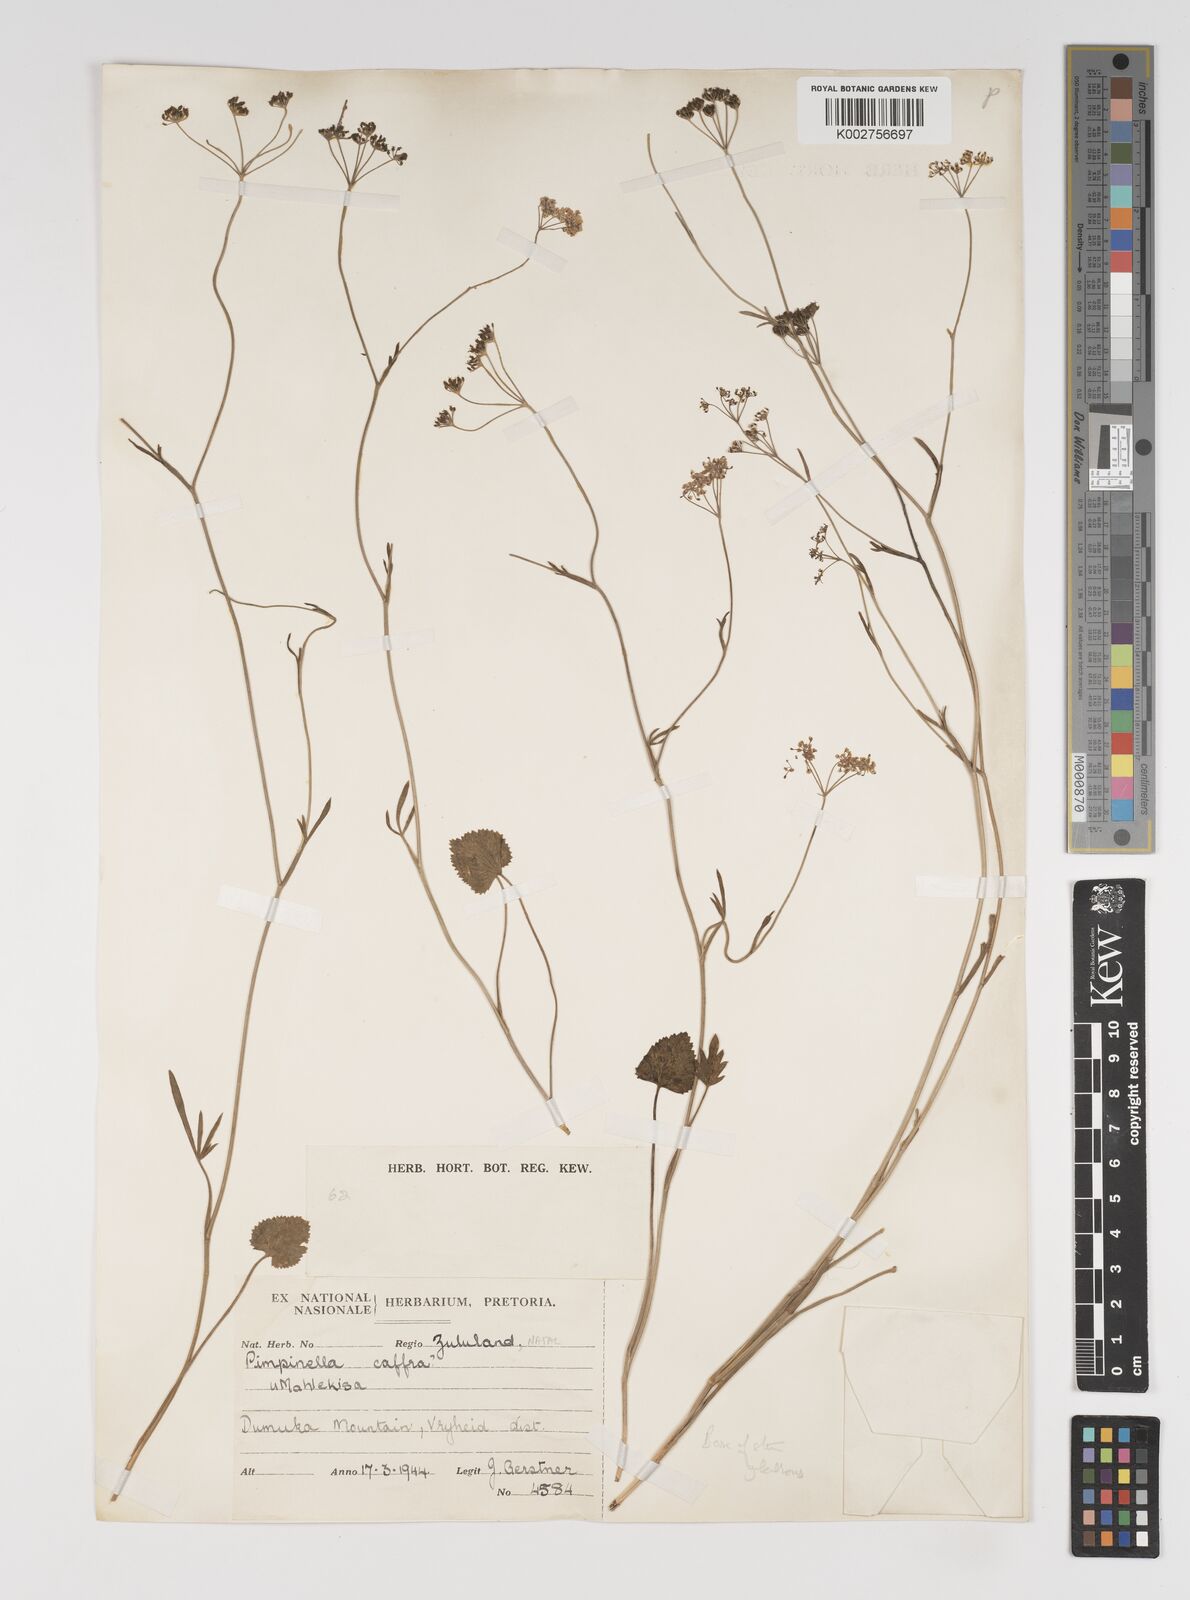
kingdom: Plantae
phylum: Tracheophyta
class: Magnoliopsida
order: Apiales
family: Apiaceae
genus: Pimpinella
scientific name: Pimpinella
